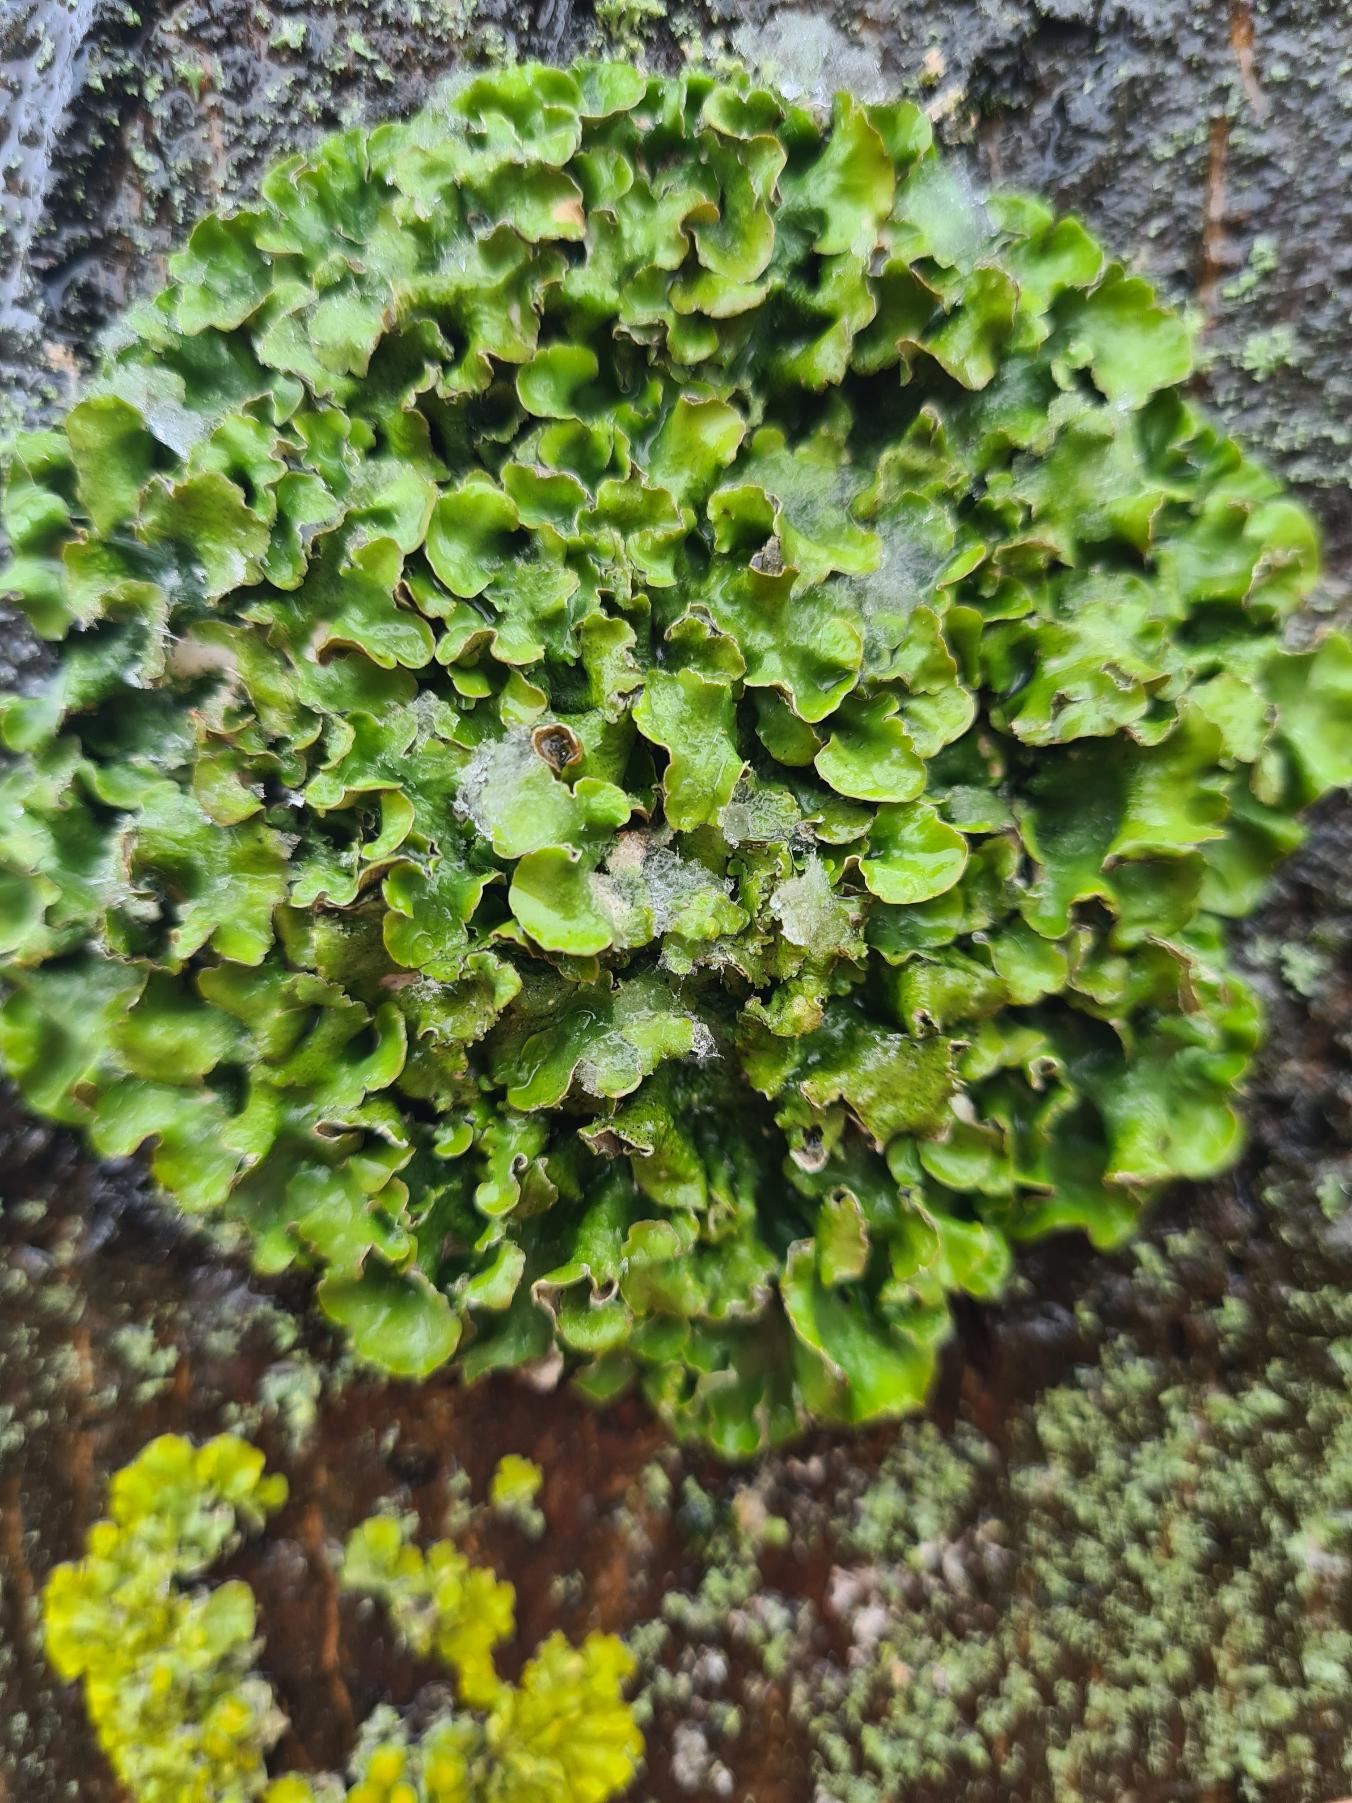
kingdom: Fungi
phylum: Ascomycota
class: Lecanoromycetes
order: Lecanorales
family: Parmeliaceae
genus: Pleurosticta
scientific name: Pleurosticta acetabulum
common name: Stor skållav
